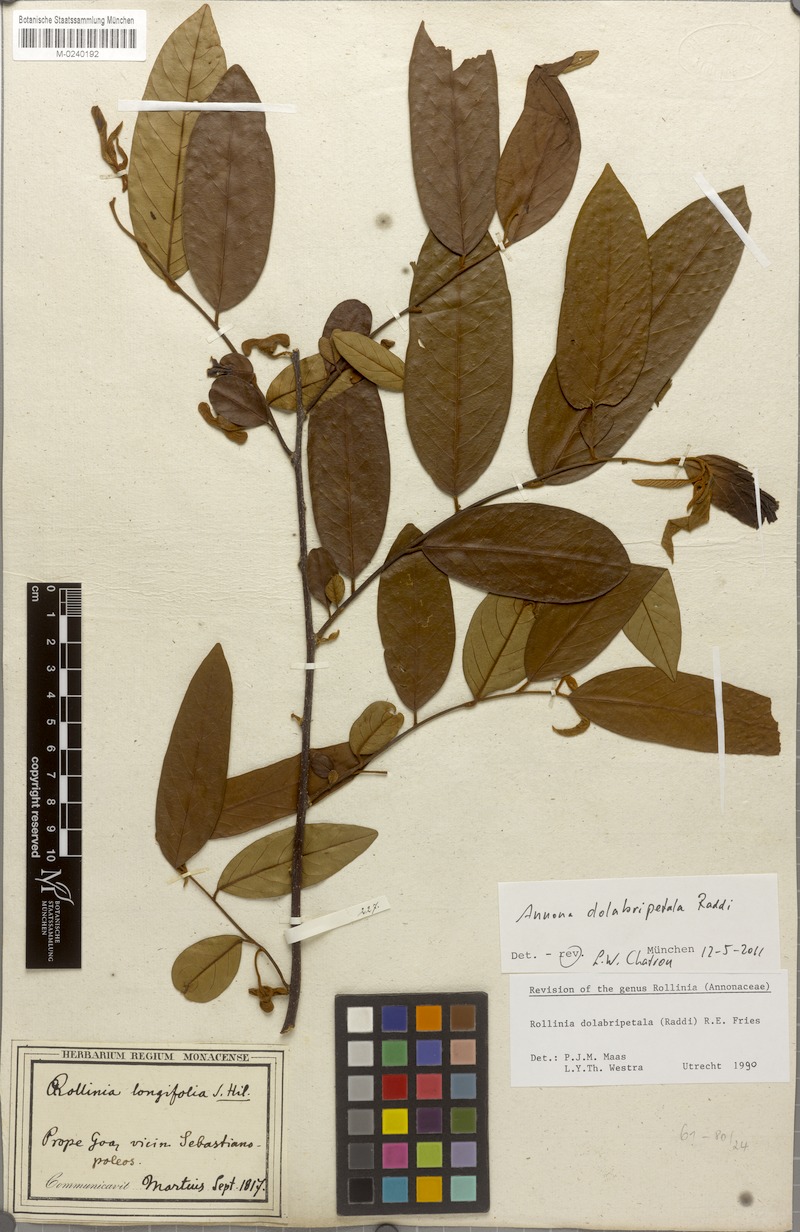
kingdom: Plantae
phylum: Tracheophyta
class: Magnoliopsida
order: Magnoliales
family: Annonaceae
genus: Annona
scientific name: Annona dolabripetala
